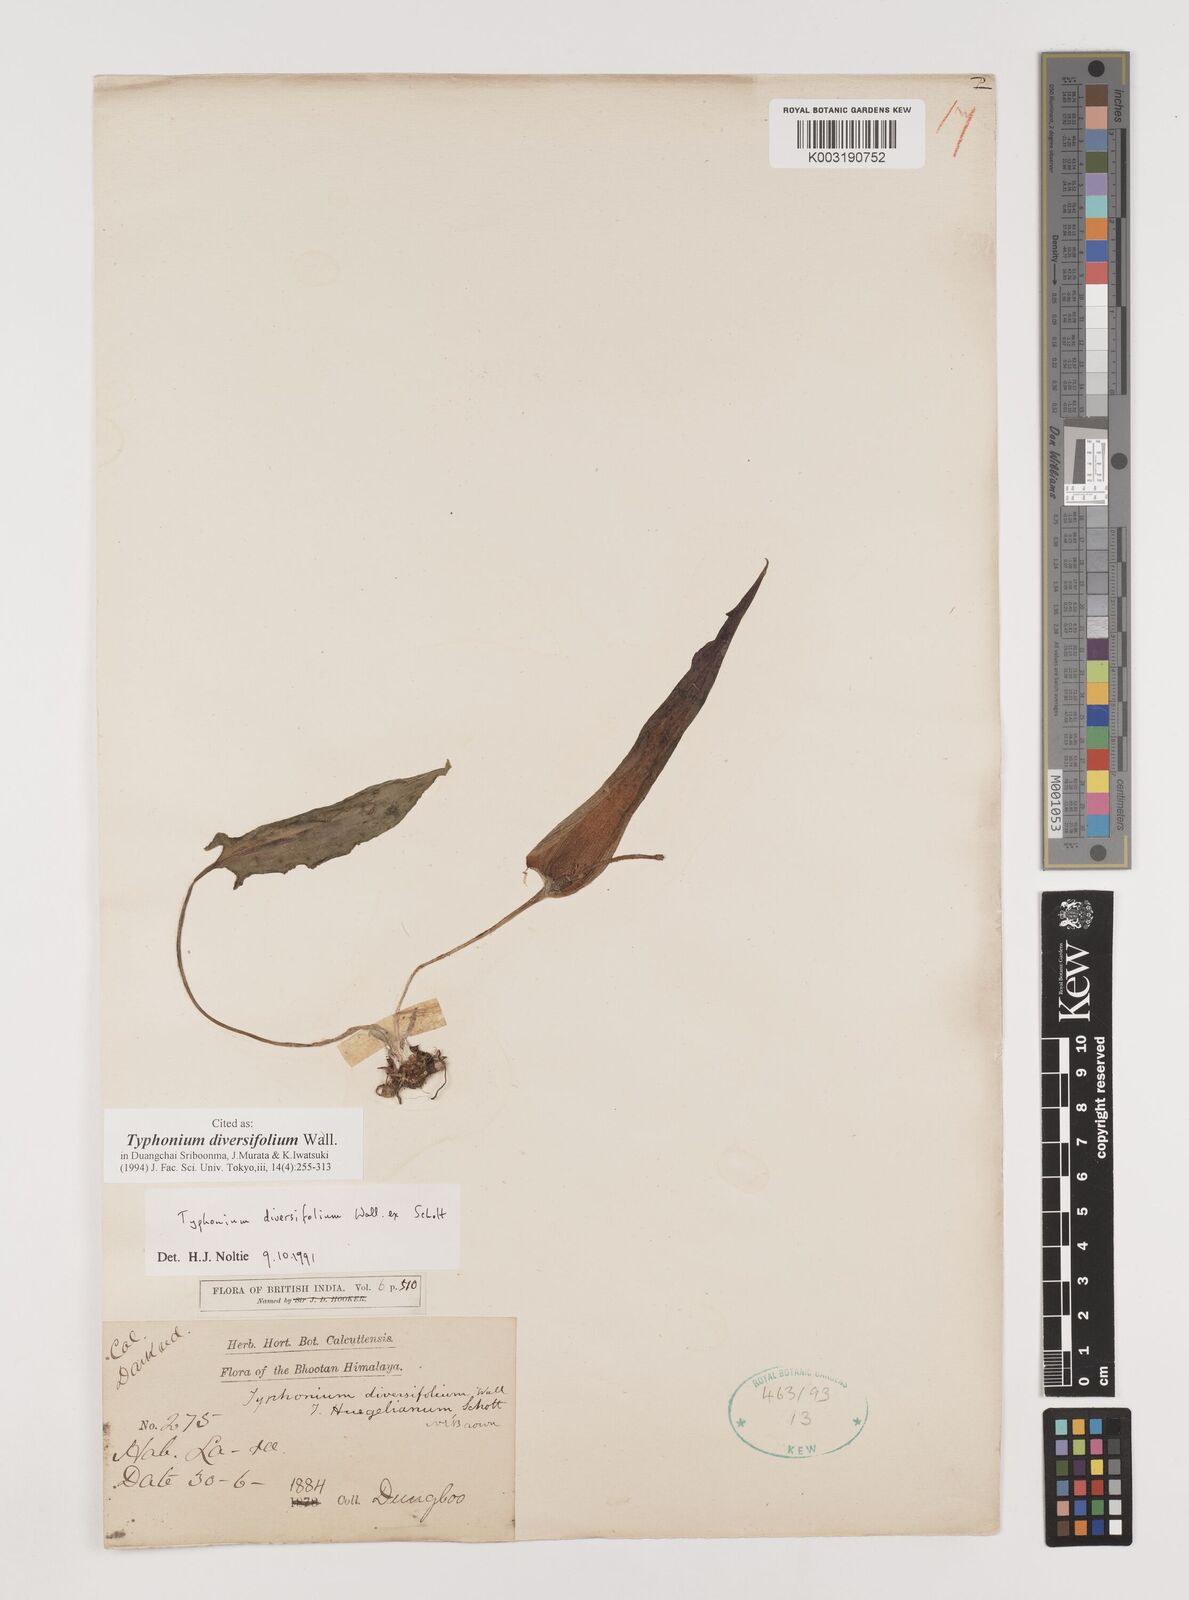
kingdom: Plantae
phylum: Tracheophyta
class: Liliopsida
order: Alismatales
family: Araceae
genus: Sauromatum
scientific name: Sauromatum diversifolium
